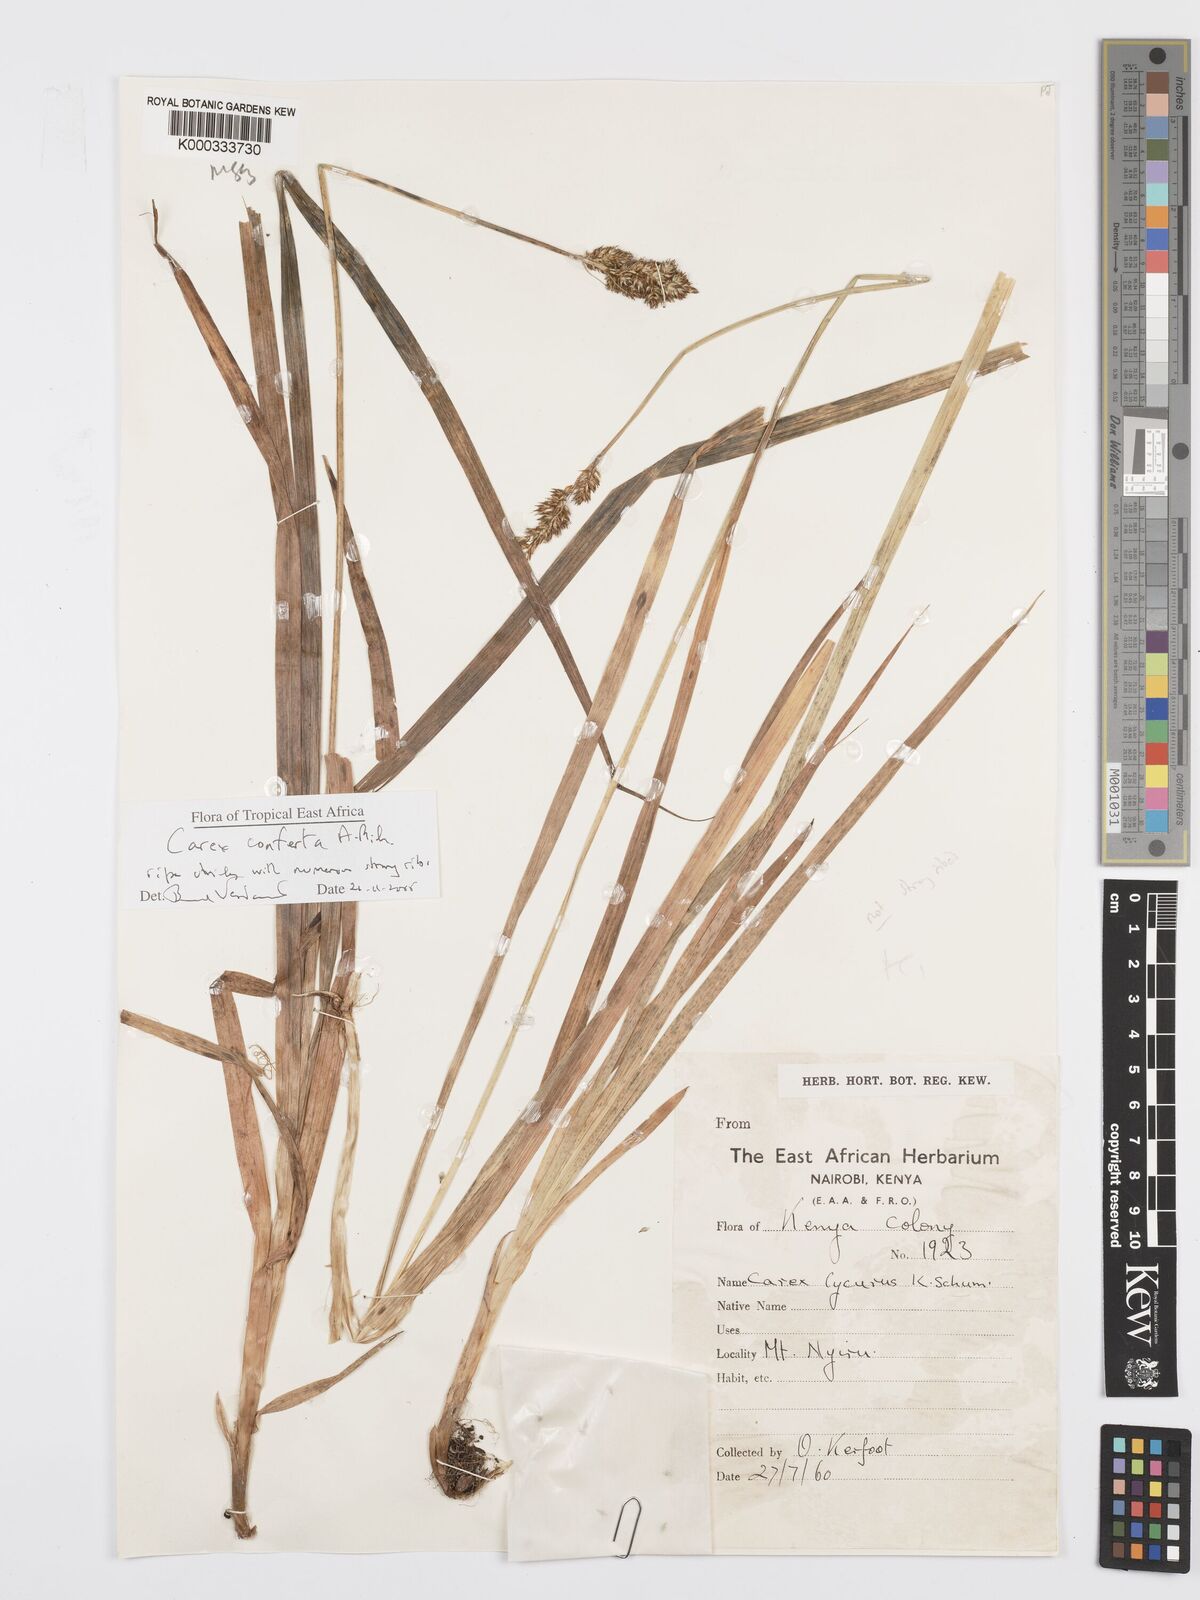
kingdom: Plantae
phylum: Tracheophyta
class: Liliopsida
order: Poales
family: Cyperaceae
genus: Carex
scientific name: Carex conferta
